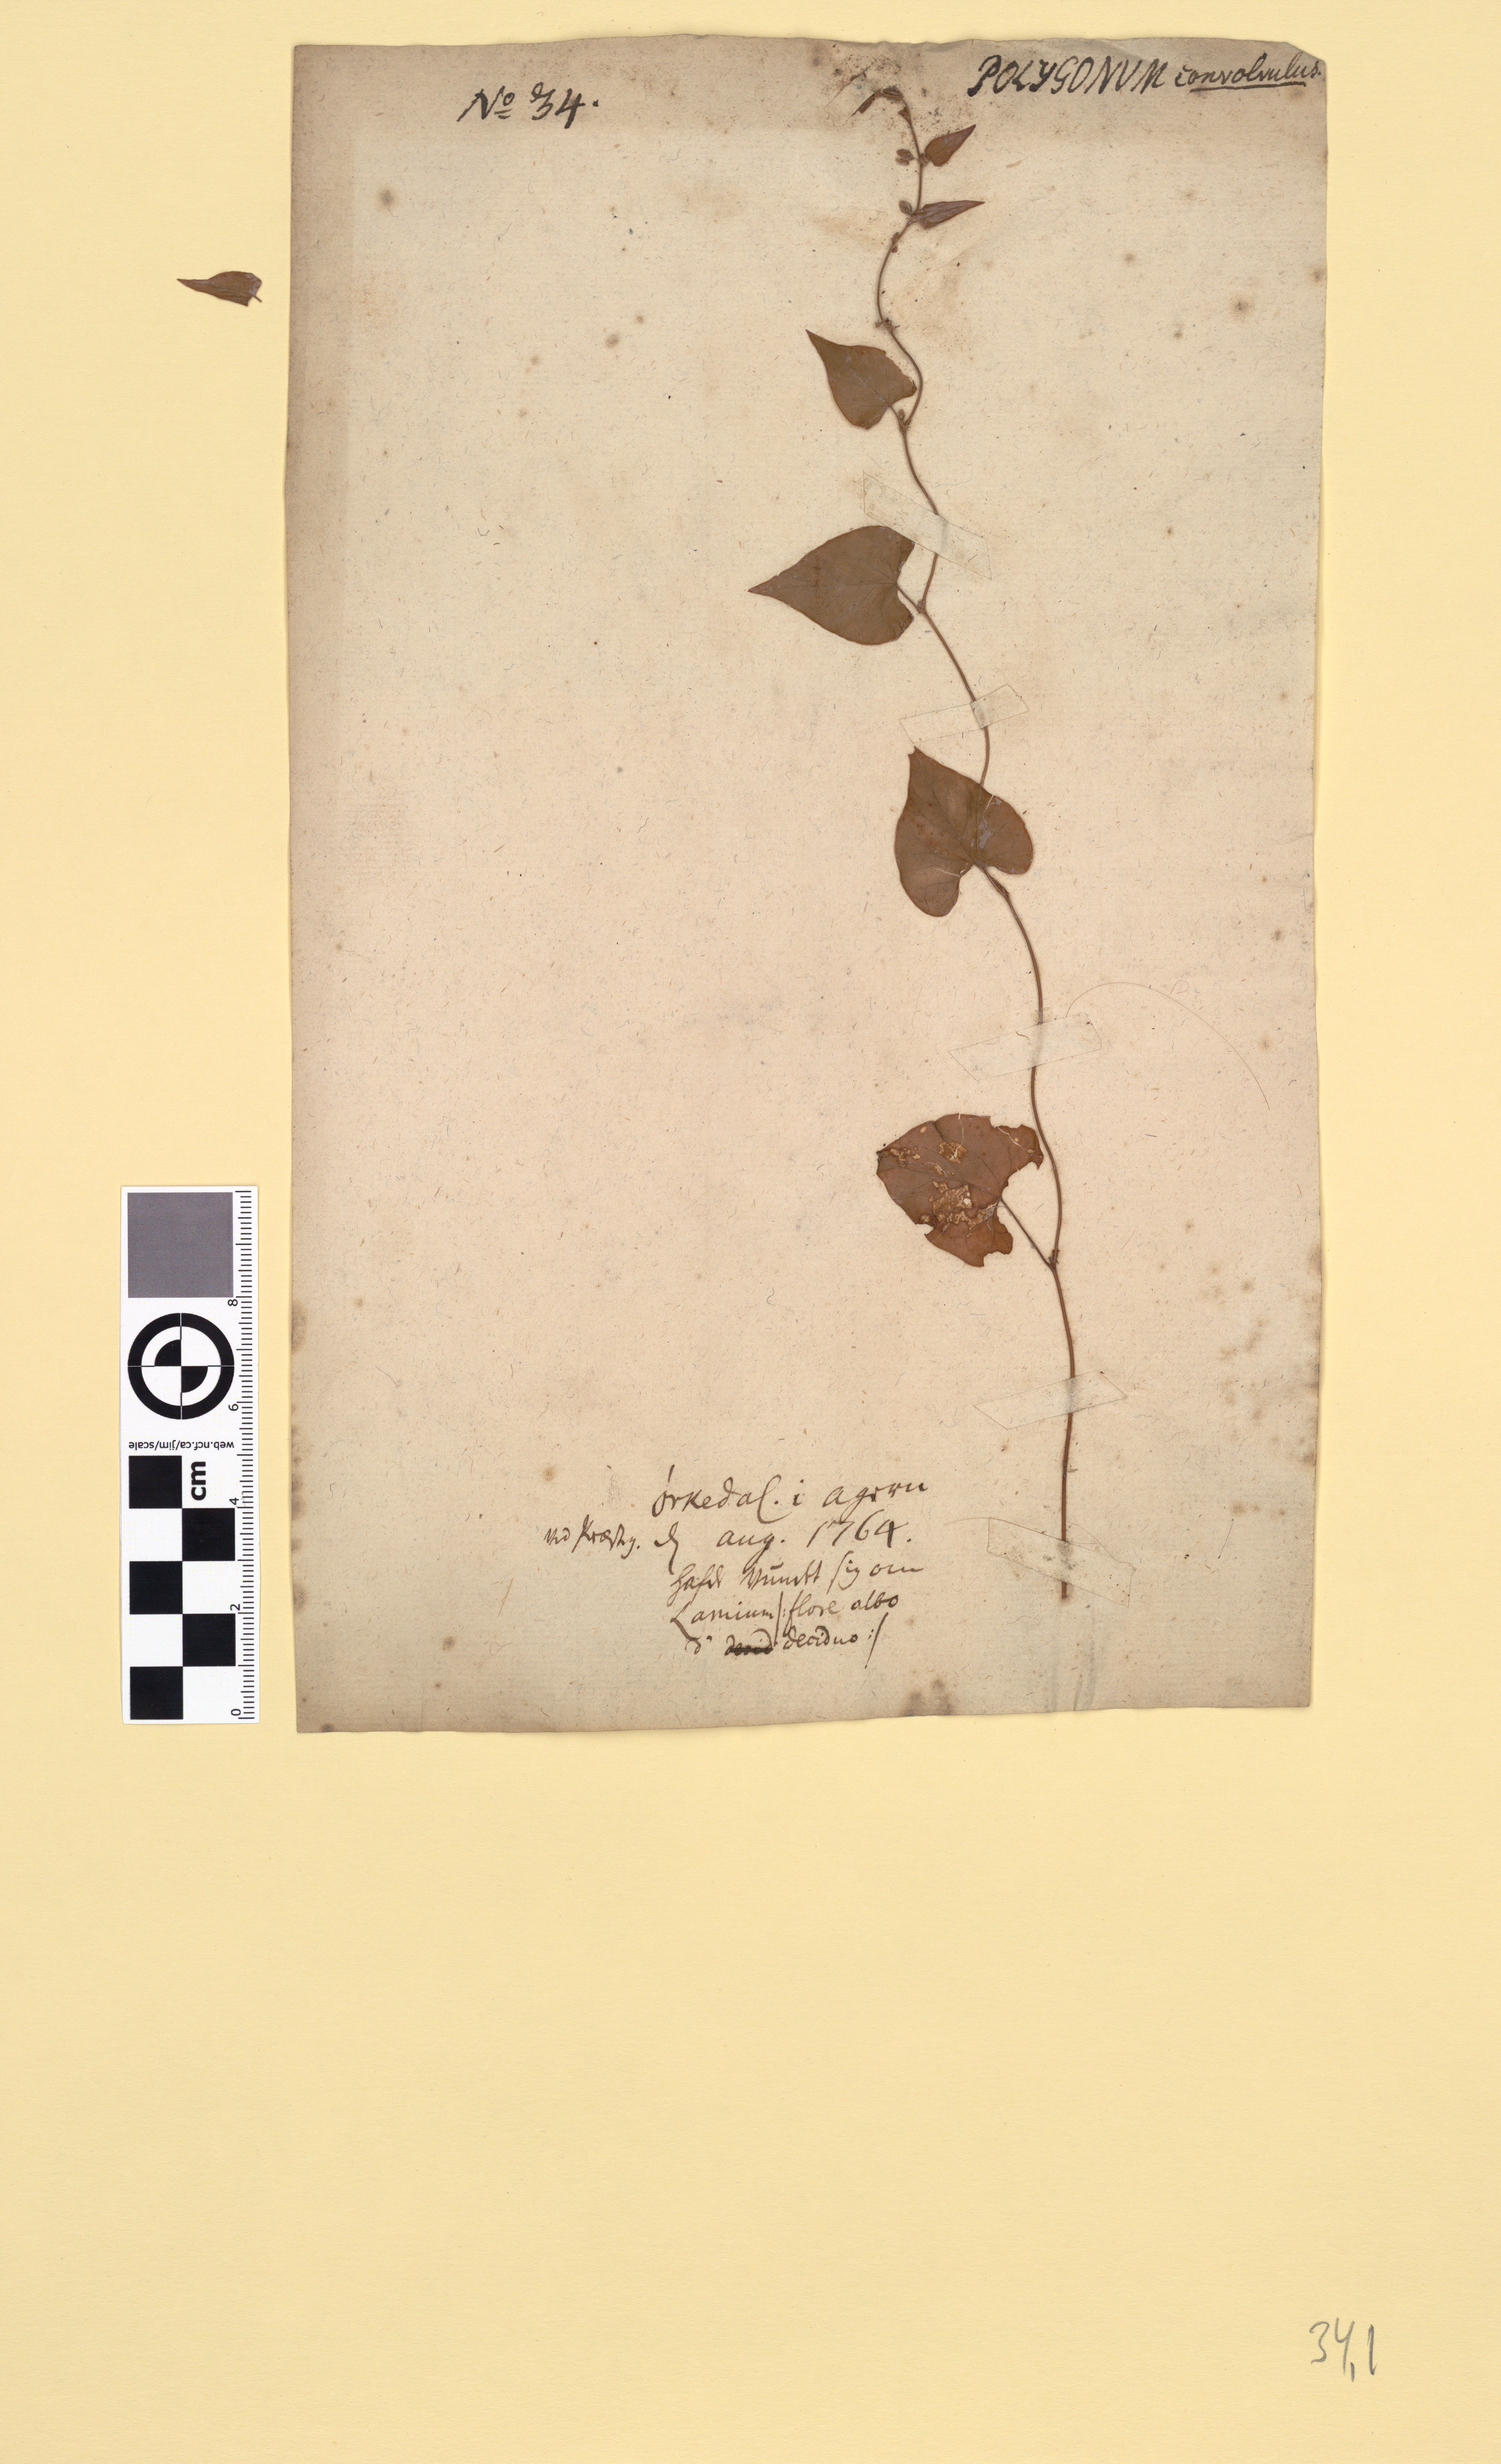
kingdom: Plantae
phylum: Tracheophyta
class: Magnoliopsida
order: Caryophyllales
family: Polygonaceae
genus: Fallopia
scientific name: Fallopia convolvulus
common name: Black bindweed
